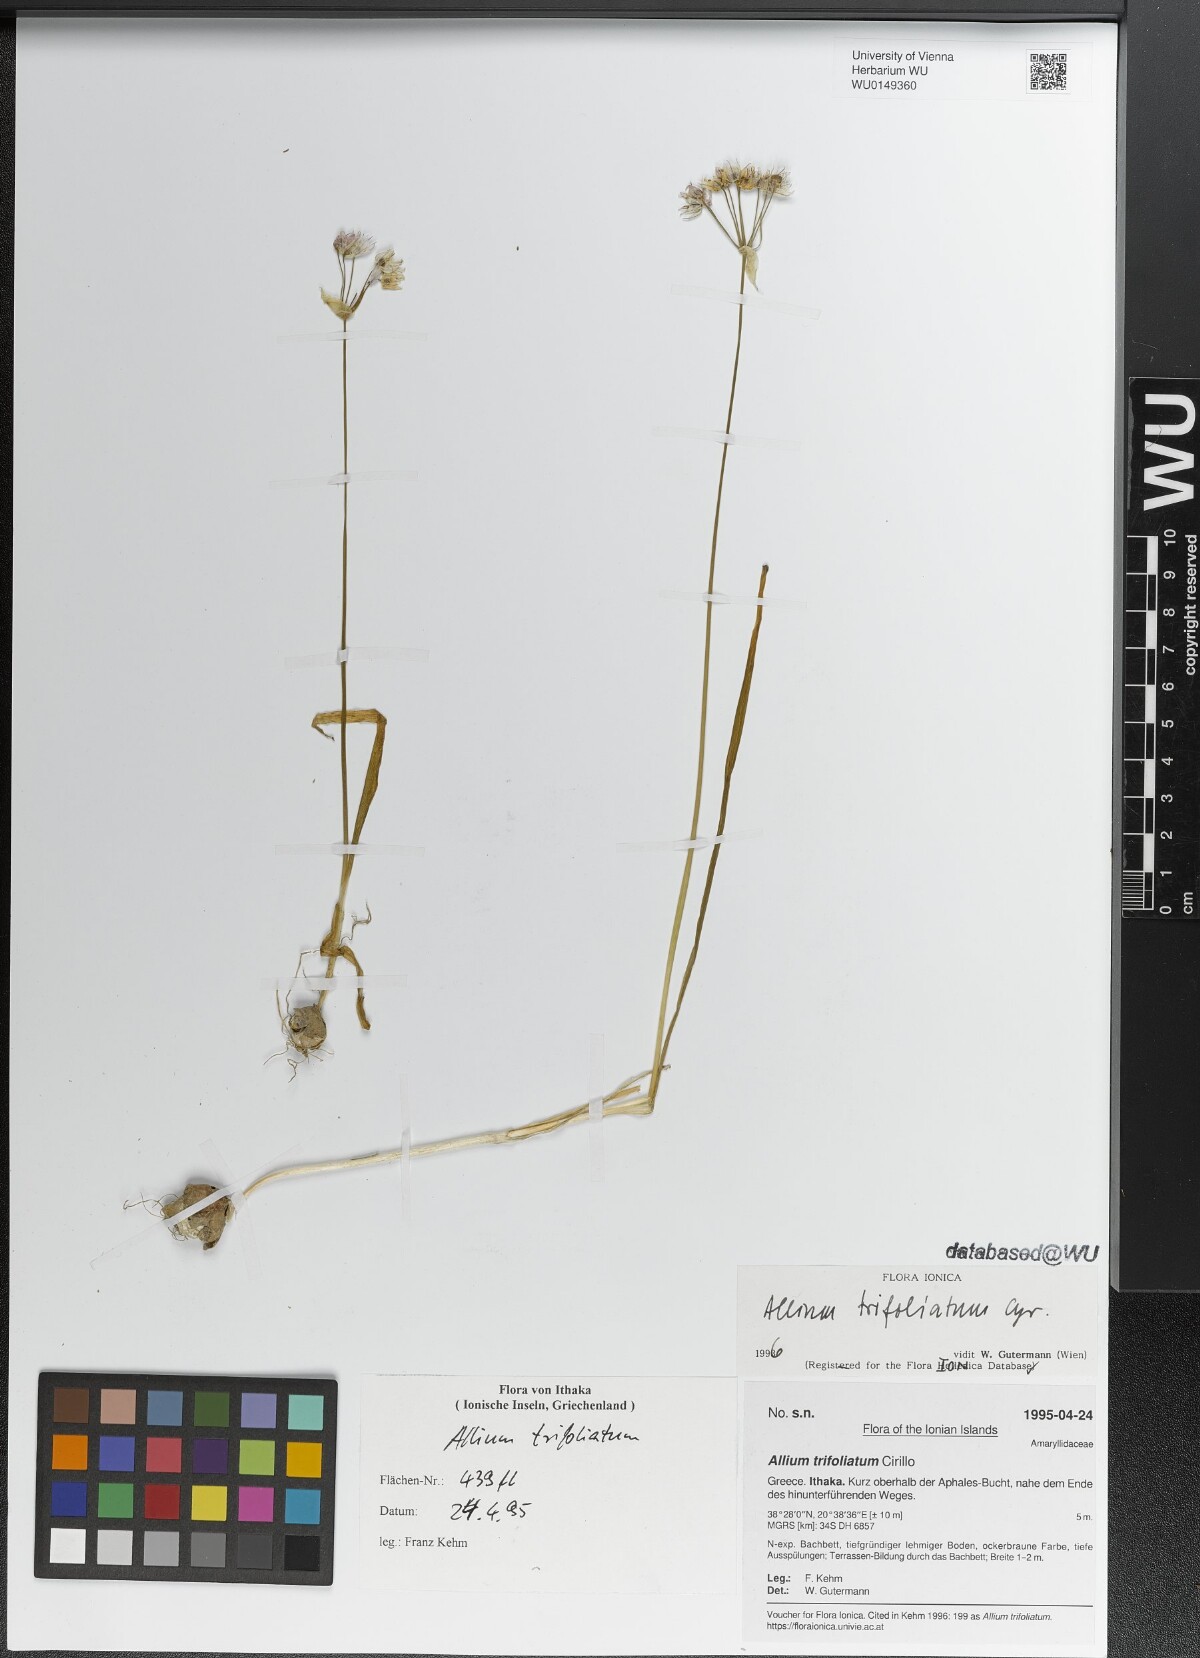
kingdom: Plantae
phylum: Tracheophyta
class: Liliopsida
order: Asparagales
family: Amaryllidaceae
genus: Allium
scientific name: Allium trifoliatum
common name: Pink garlic
